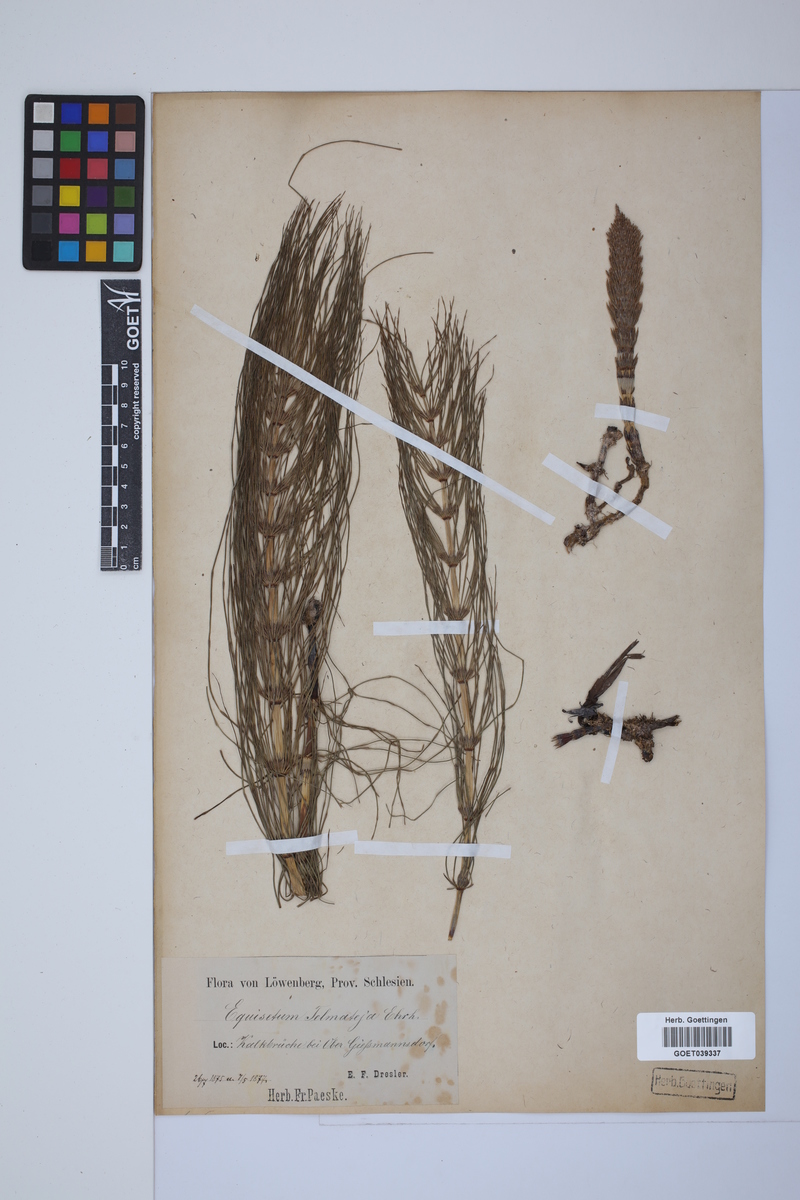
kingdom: Plantae
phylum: Tracheophyta
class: Polypodiopsida
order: Equisetales
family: Equisetaceae
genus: Equisetum
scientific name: Equisetum telmateia
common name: Great horsetail
